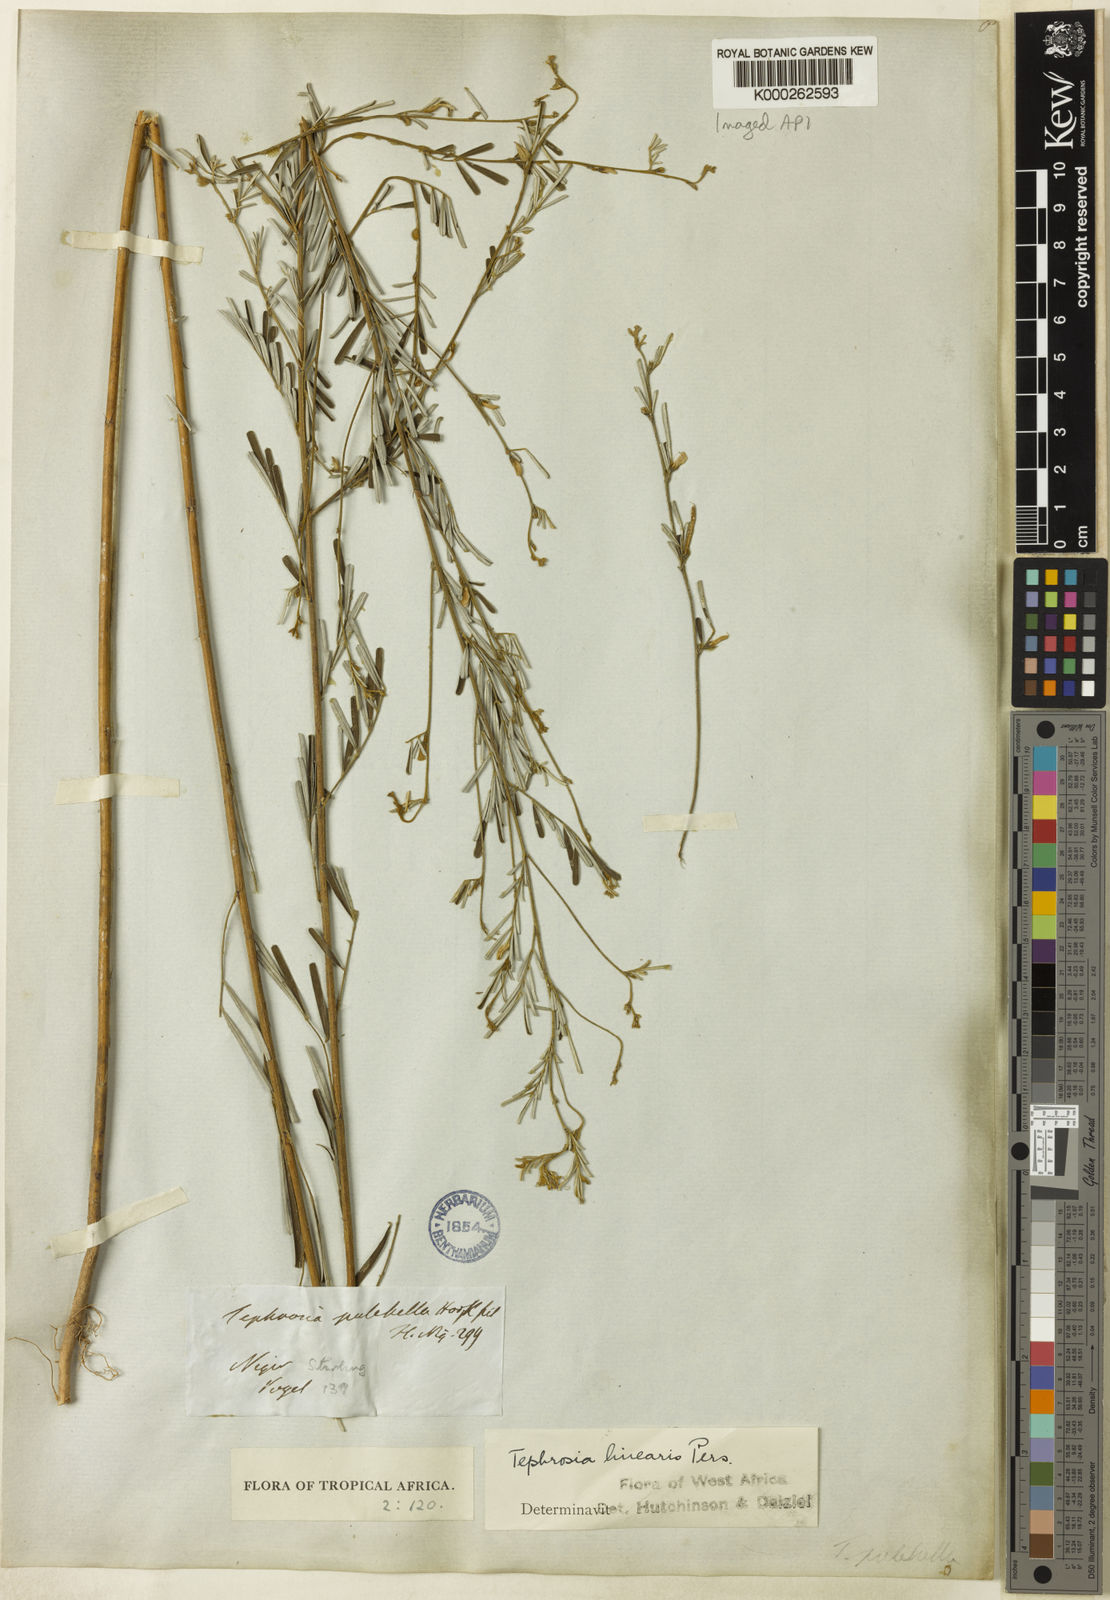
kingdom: Plantae
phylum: Tracheophyta
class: Magnoliopsida
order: Fabales
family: Fabaceae
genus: Tephrosia
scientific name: Tephrosia linearis
